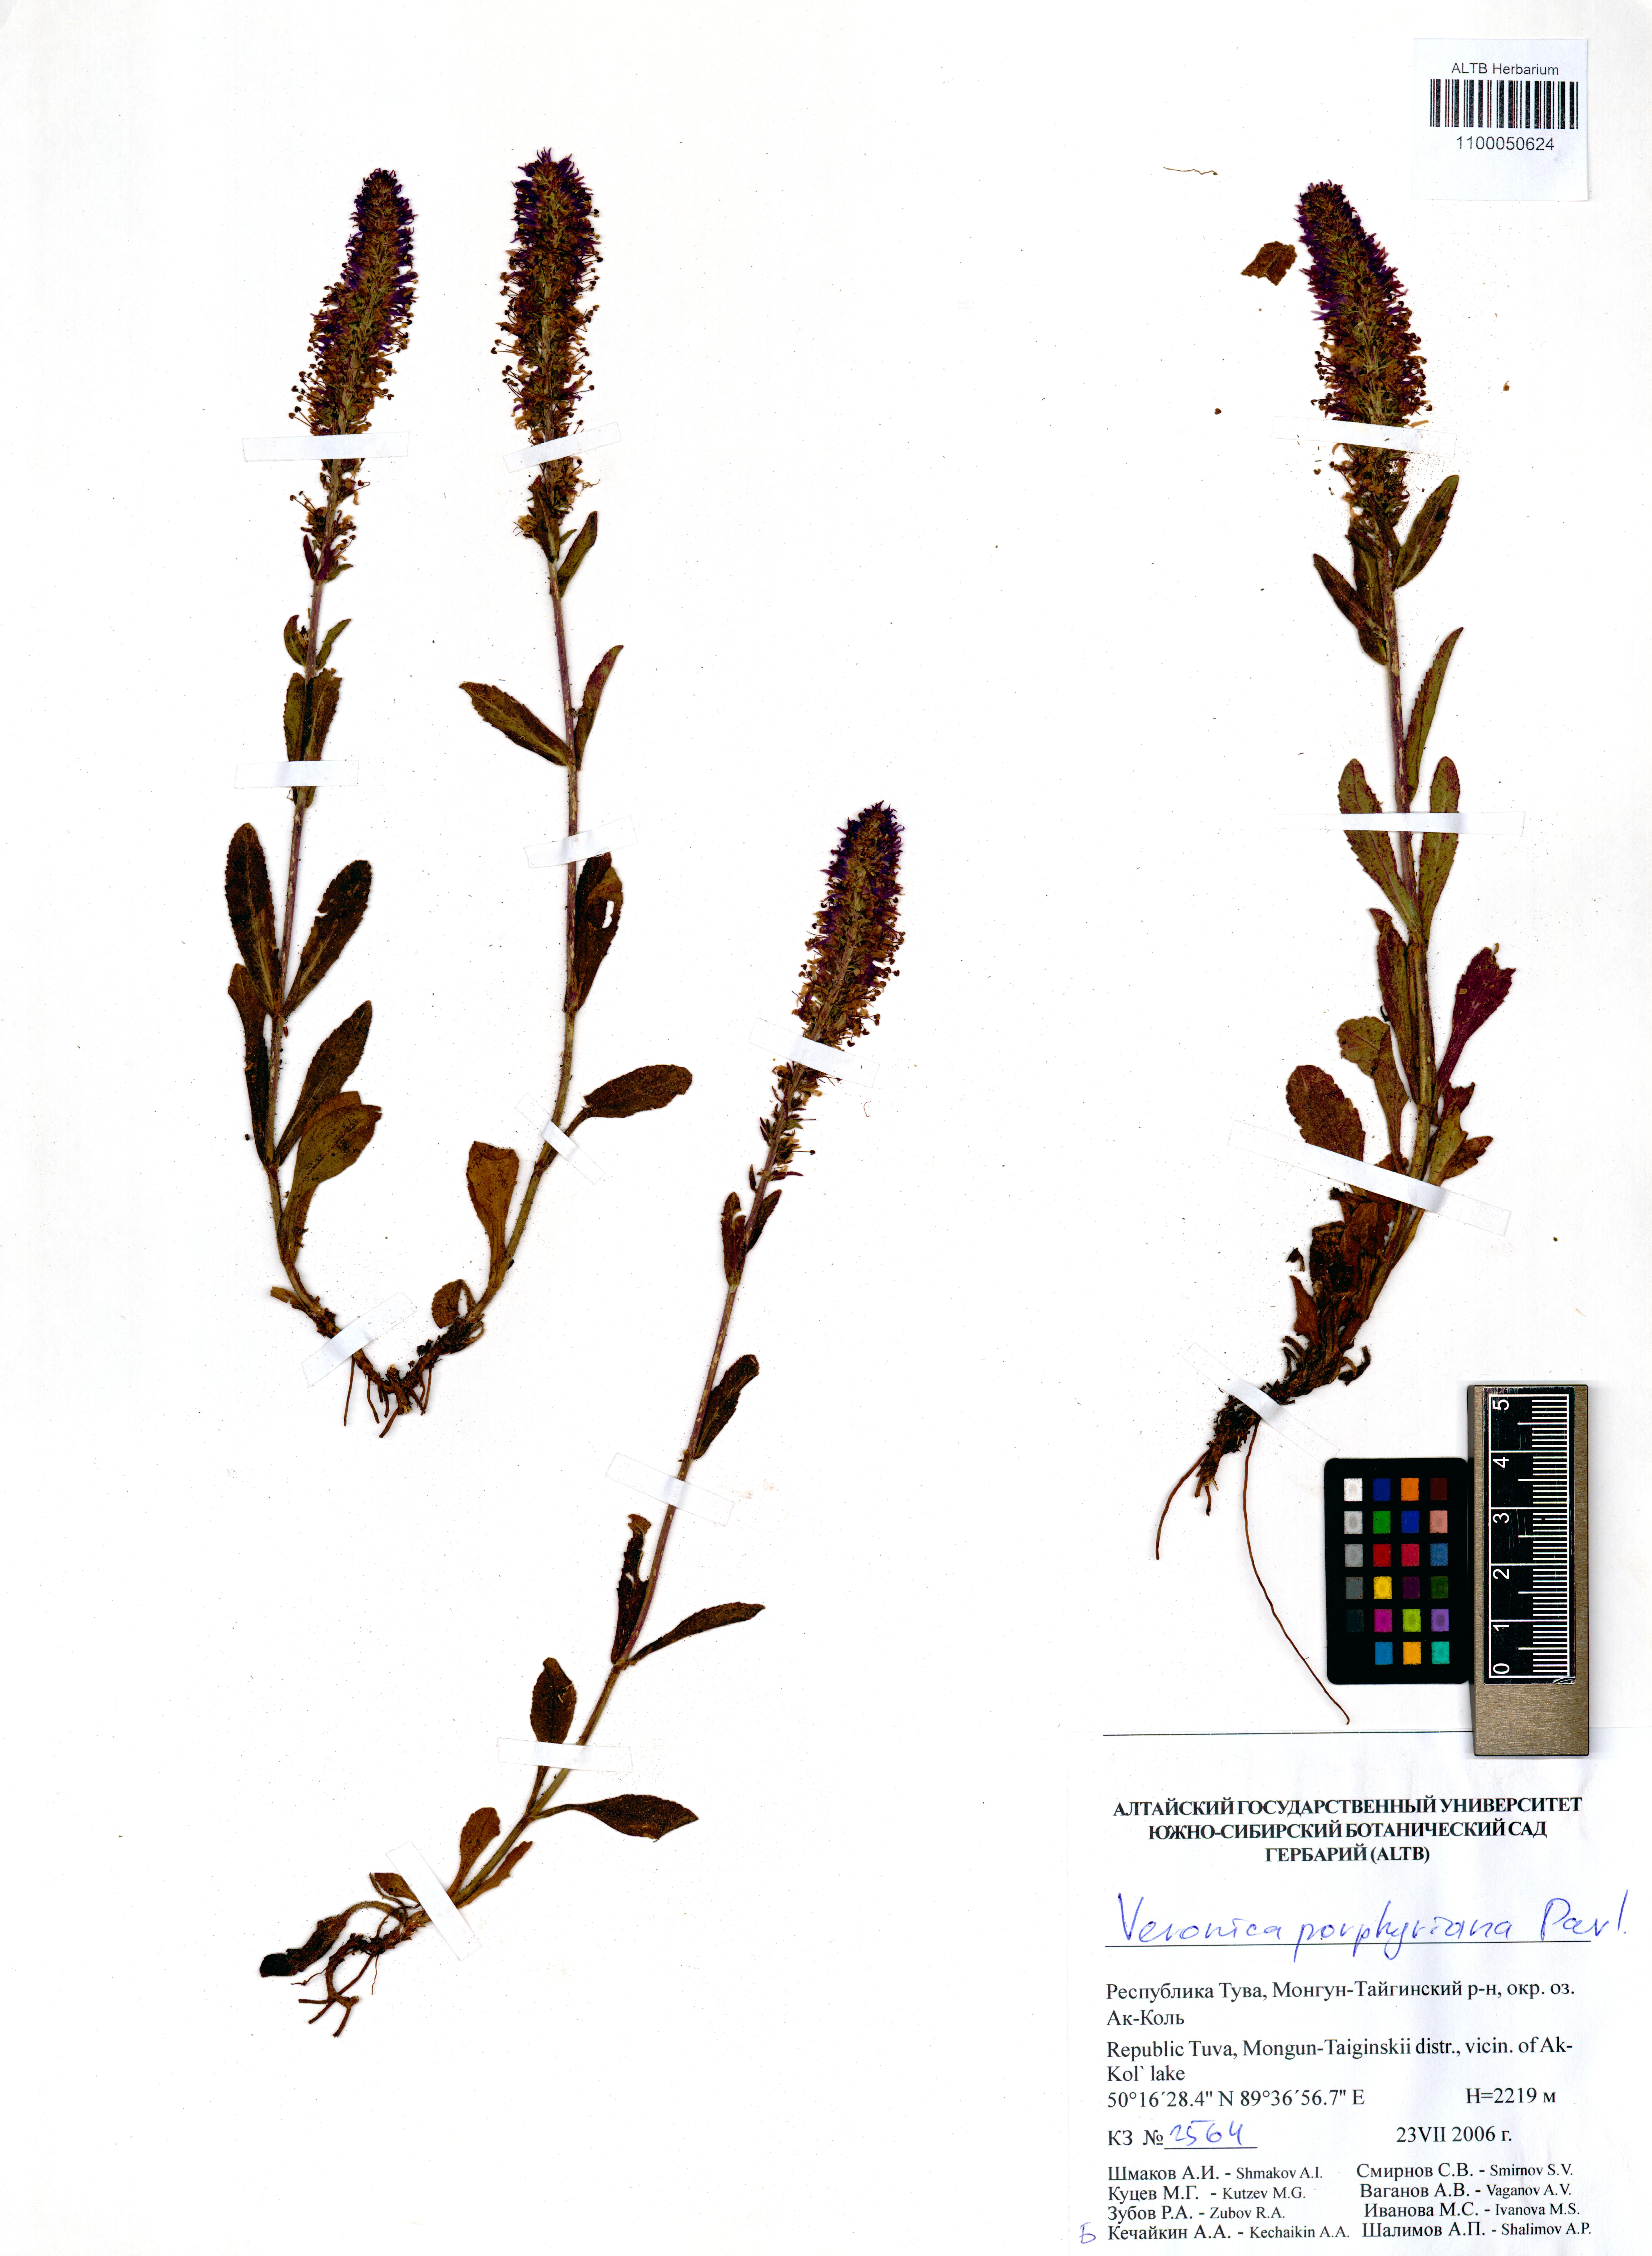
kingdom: Plantae
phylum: Tracheophyta
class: Magnoliopsida
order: Lamiales
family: Plantaginaceae
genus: Veronica
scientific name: Veronica porphyriana
